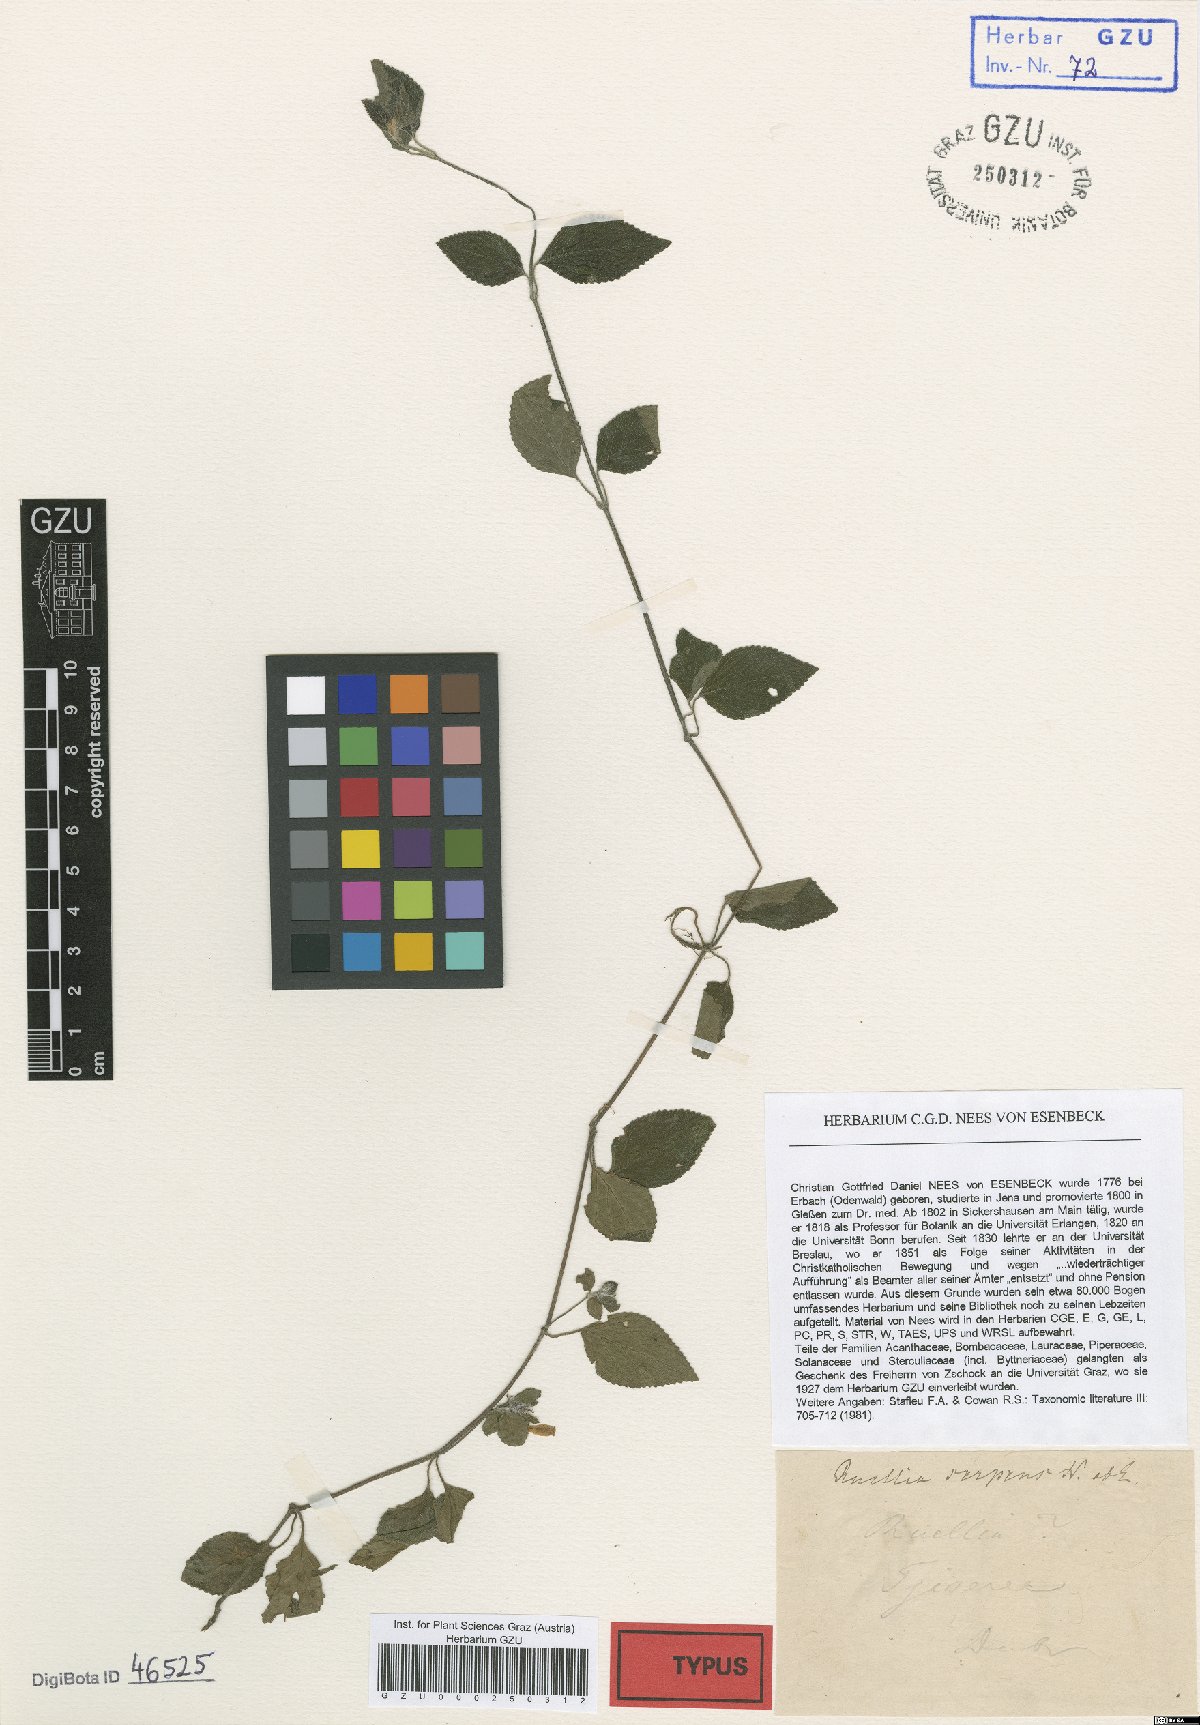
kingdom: Plantae
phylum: Tracheophyta
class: Magnoliopsida
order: Lamiales
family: Acanthaceae
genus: Strobilanthes
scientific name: Strobilanthes serpens
